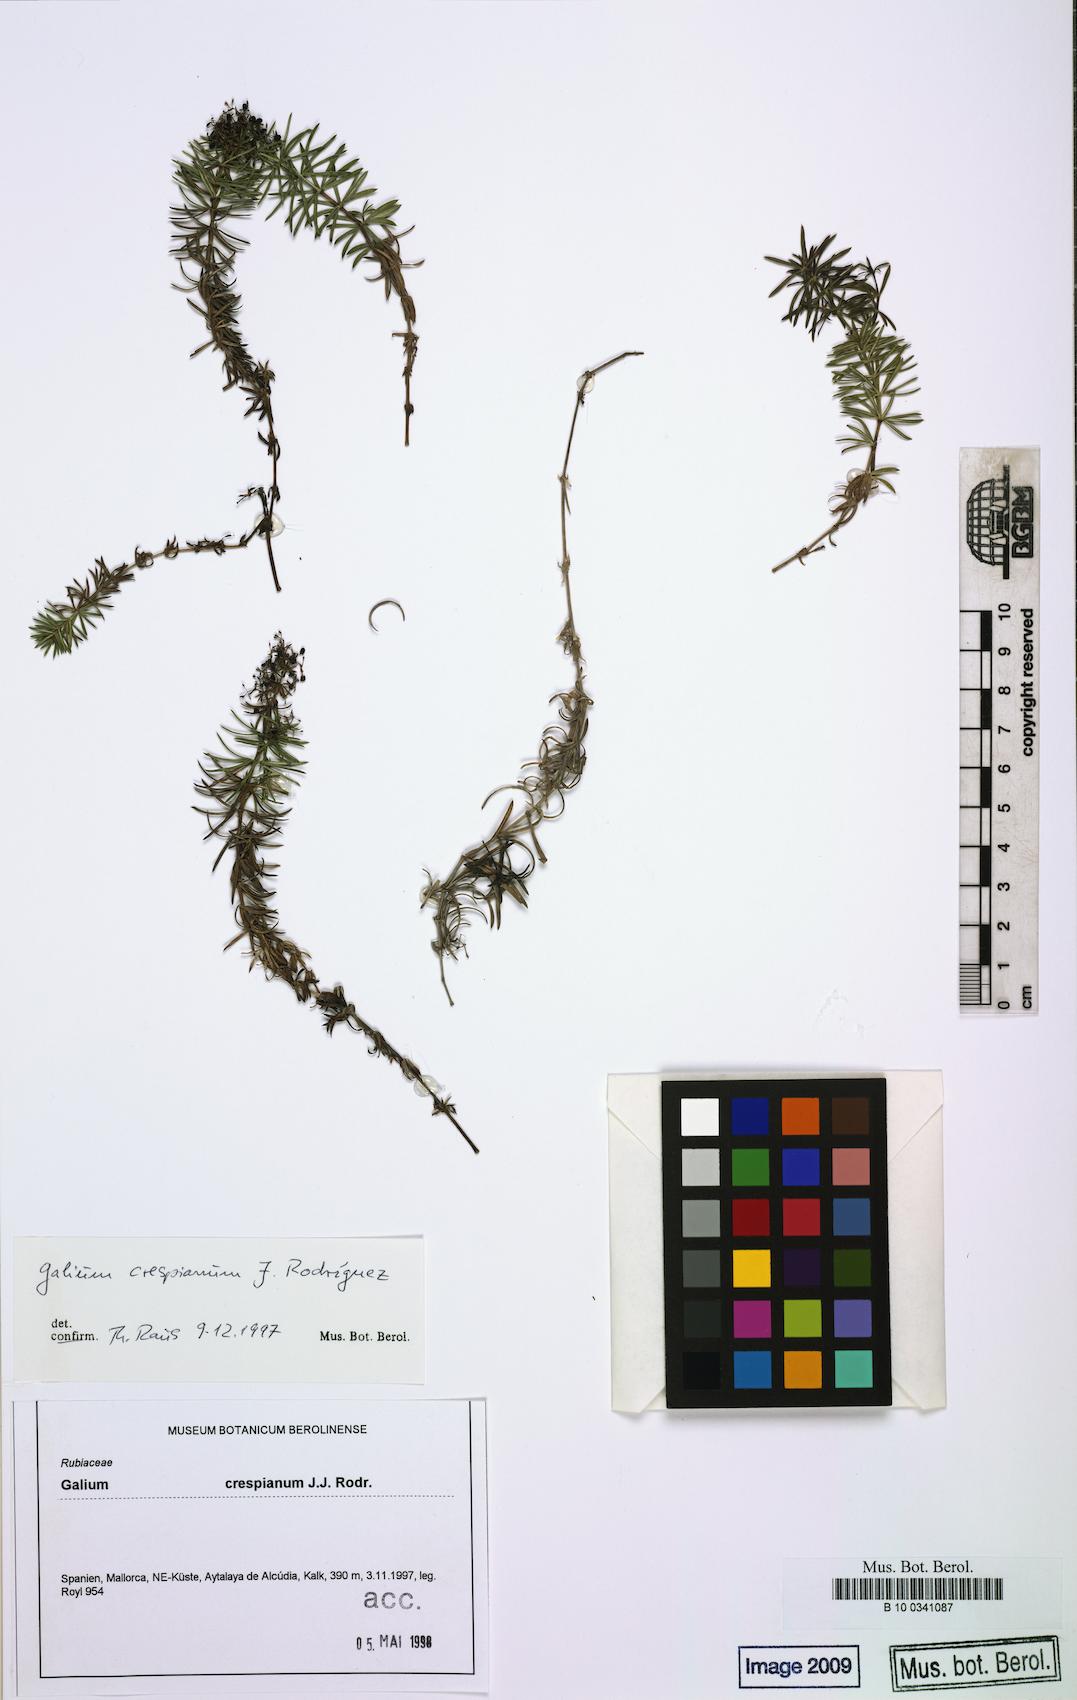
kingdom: Plantae
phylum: Tracheophyta
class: Magnoliopsida
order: Gentianales
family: Rubiaceae
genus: Galium
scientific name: Galium crespianum
